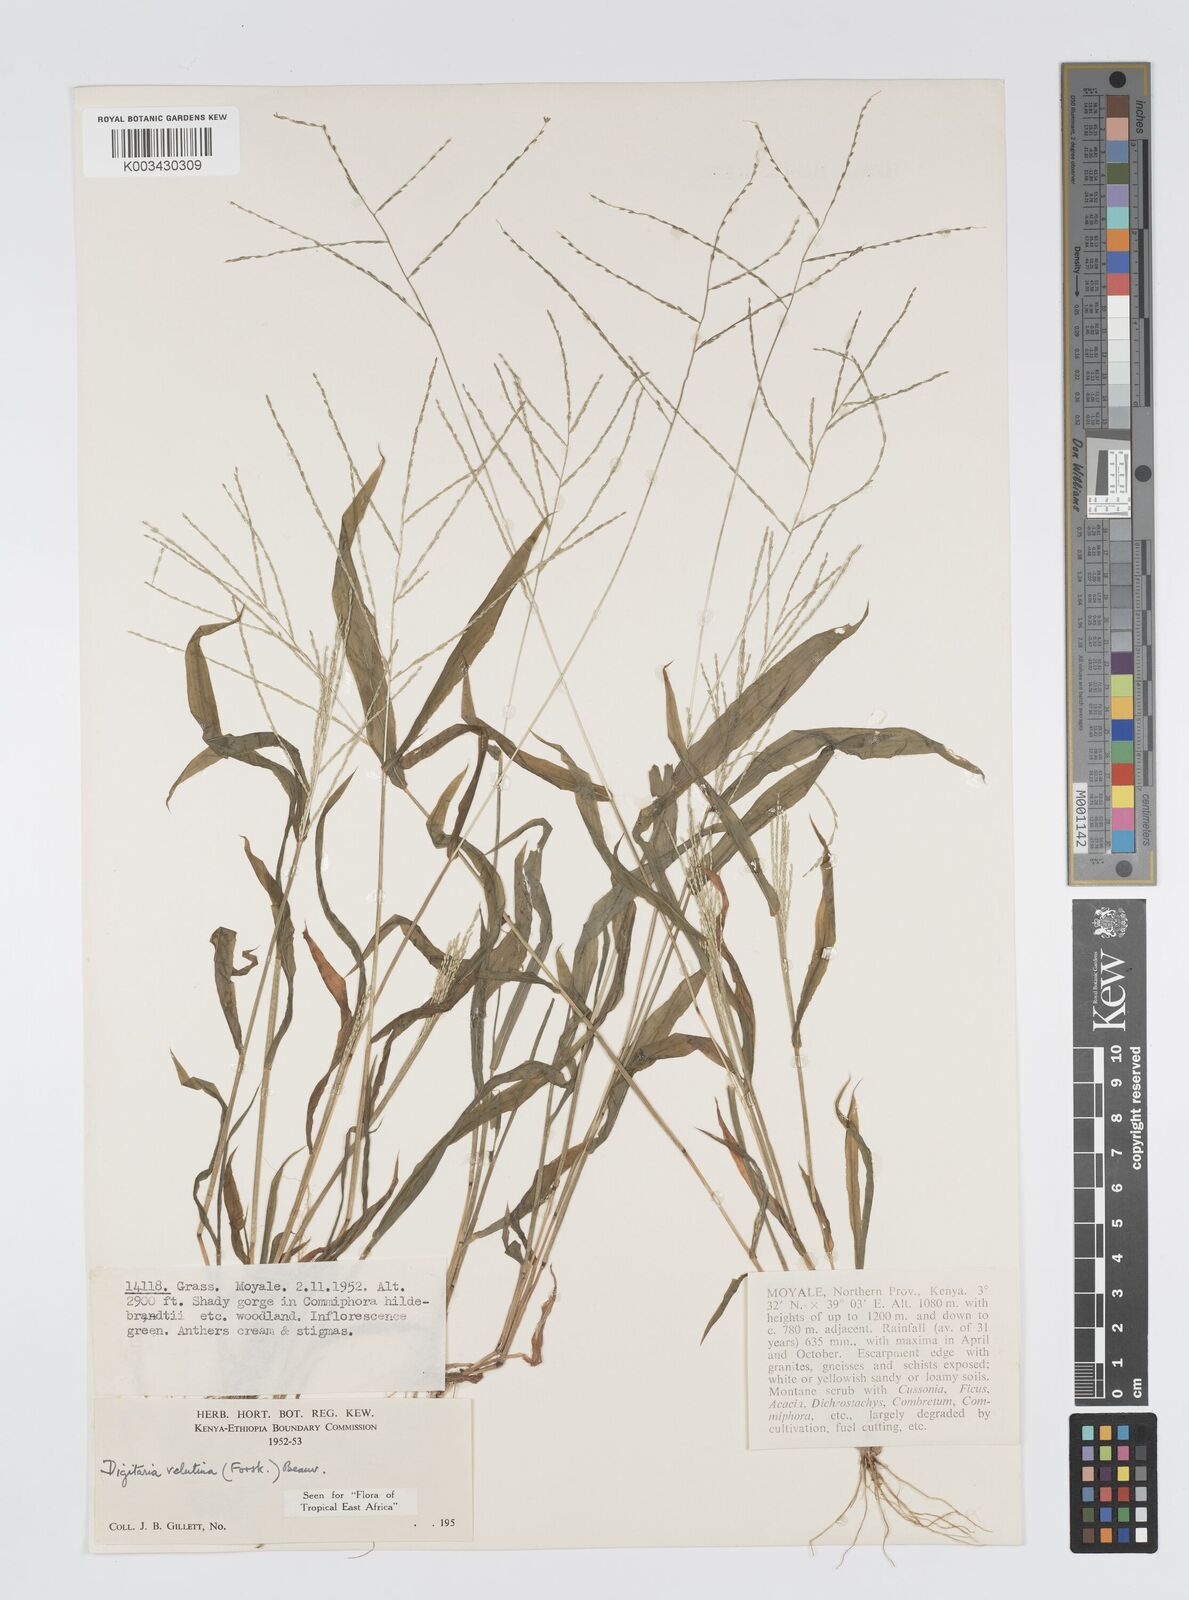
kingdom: Plantae
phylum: Tracheophyta
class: Liliopsida
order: Poales
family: Poaceae
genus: Digitaria
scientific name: Digitaria velutina
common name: Long-plume finger grass
